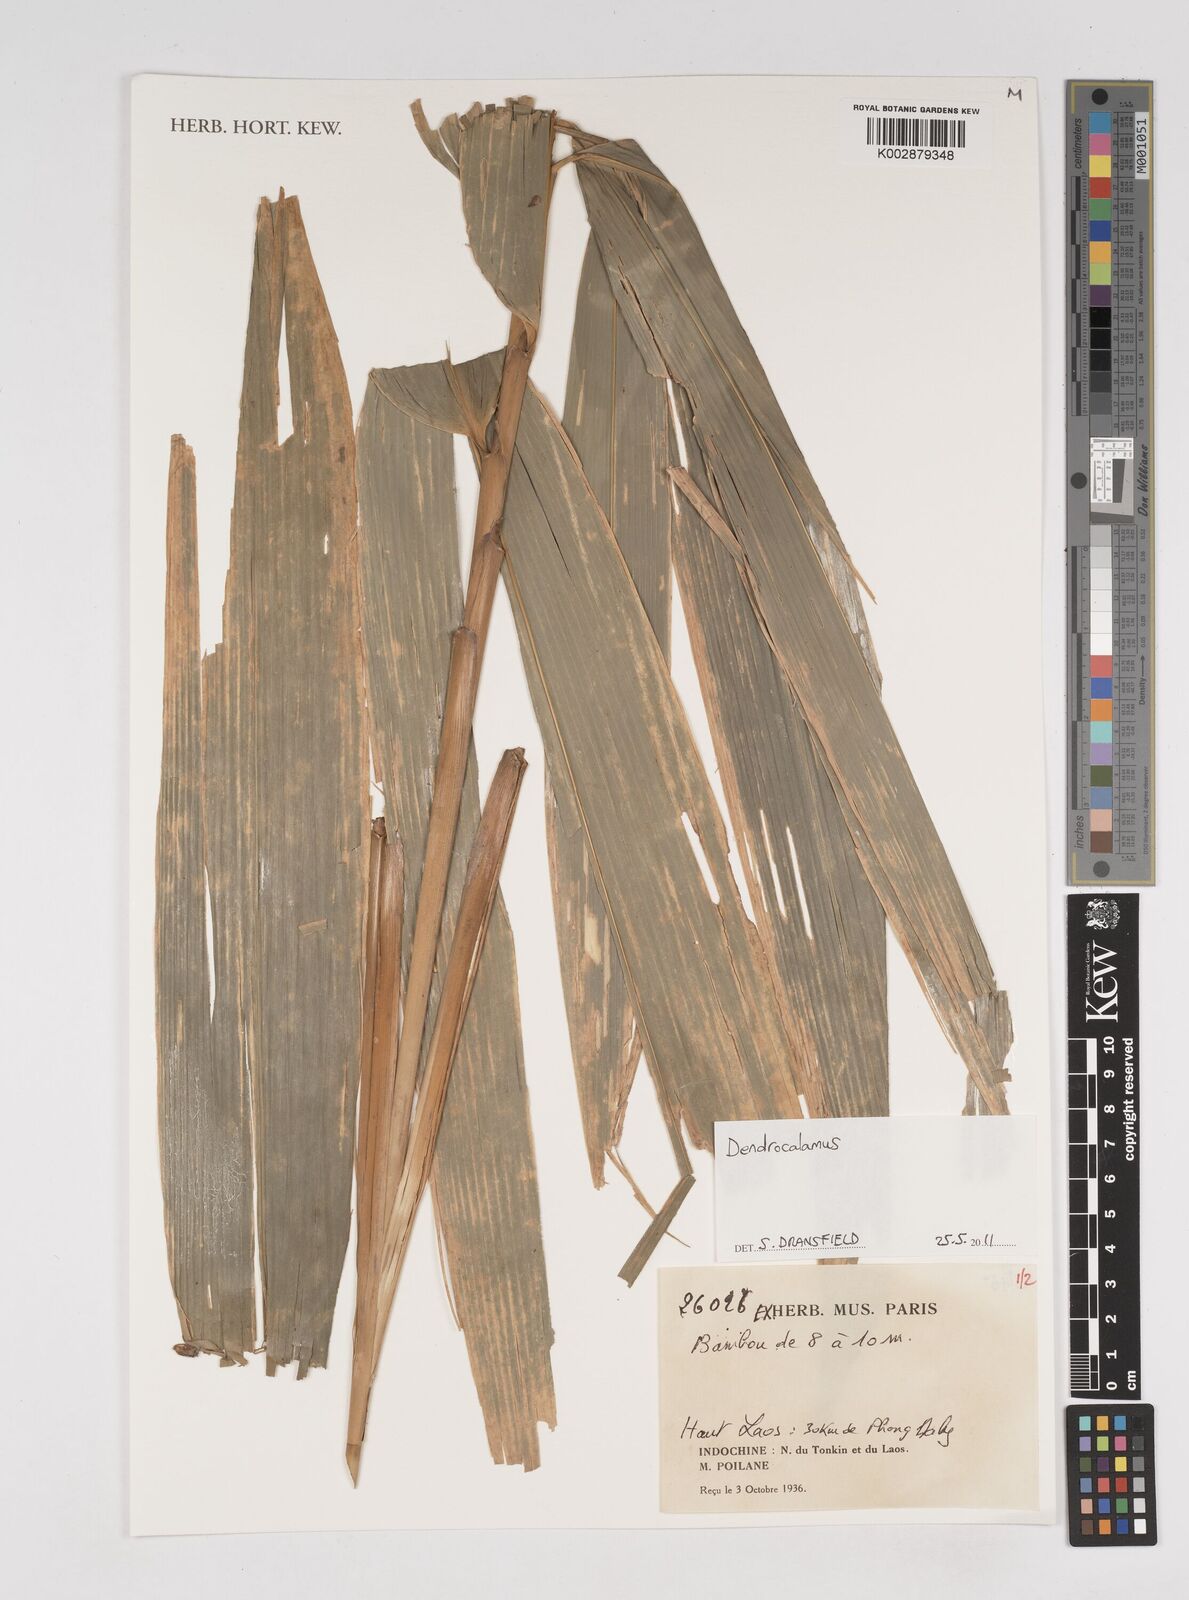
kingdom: Plantae
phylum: Tracheophyta
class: Liliopsida
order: Poales
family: Poaceae
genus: Dendrocalamus
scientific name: Dendrocalamus
